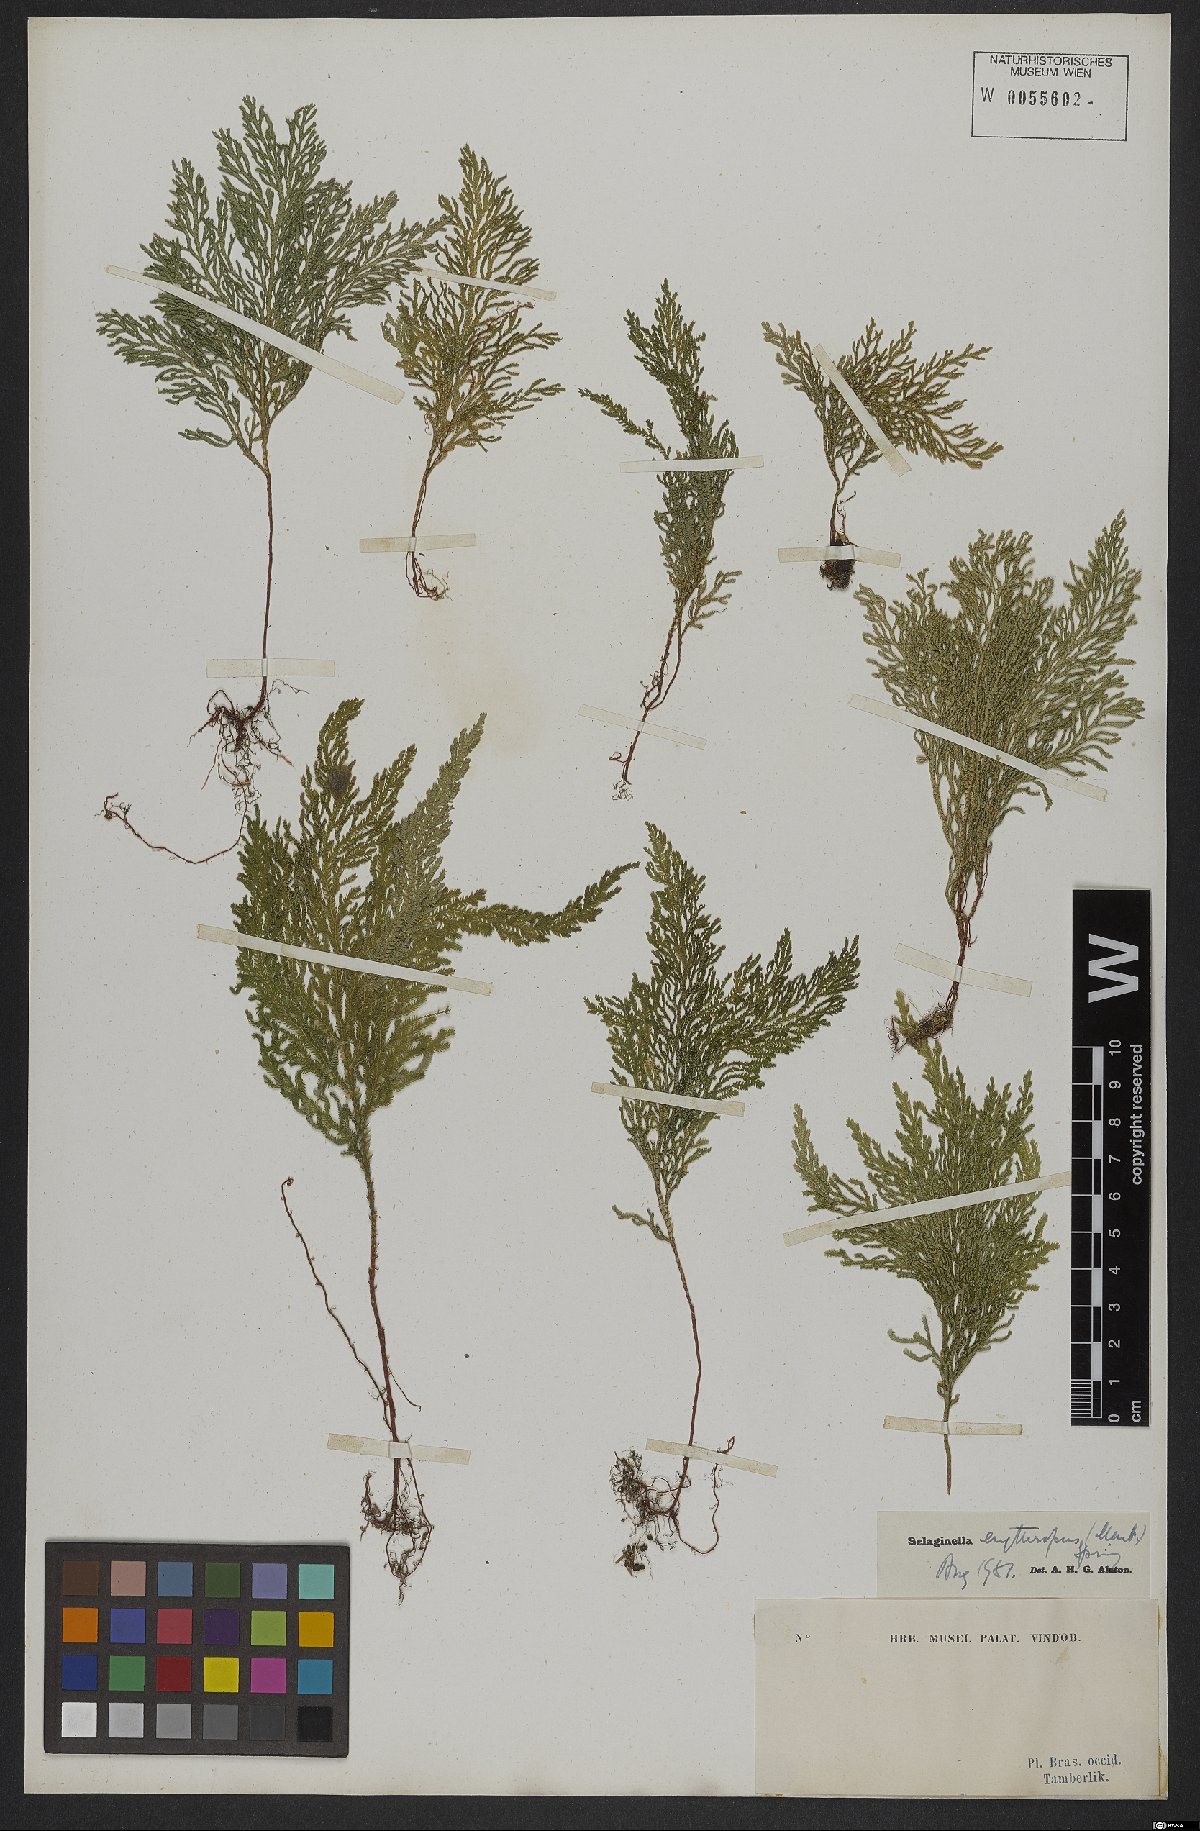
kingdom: Plantae
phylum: Tracheophyta
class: Lycopodiopsida
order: Selaginellales
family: Selaginellaceae
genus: Selaginella
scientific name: Selaginella erythropus
